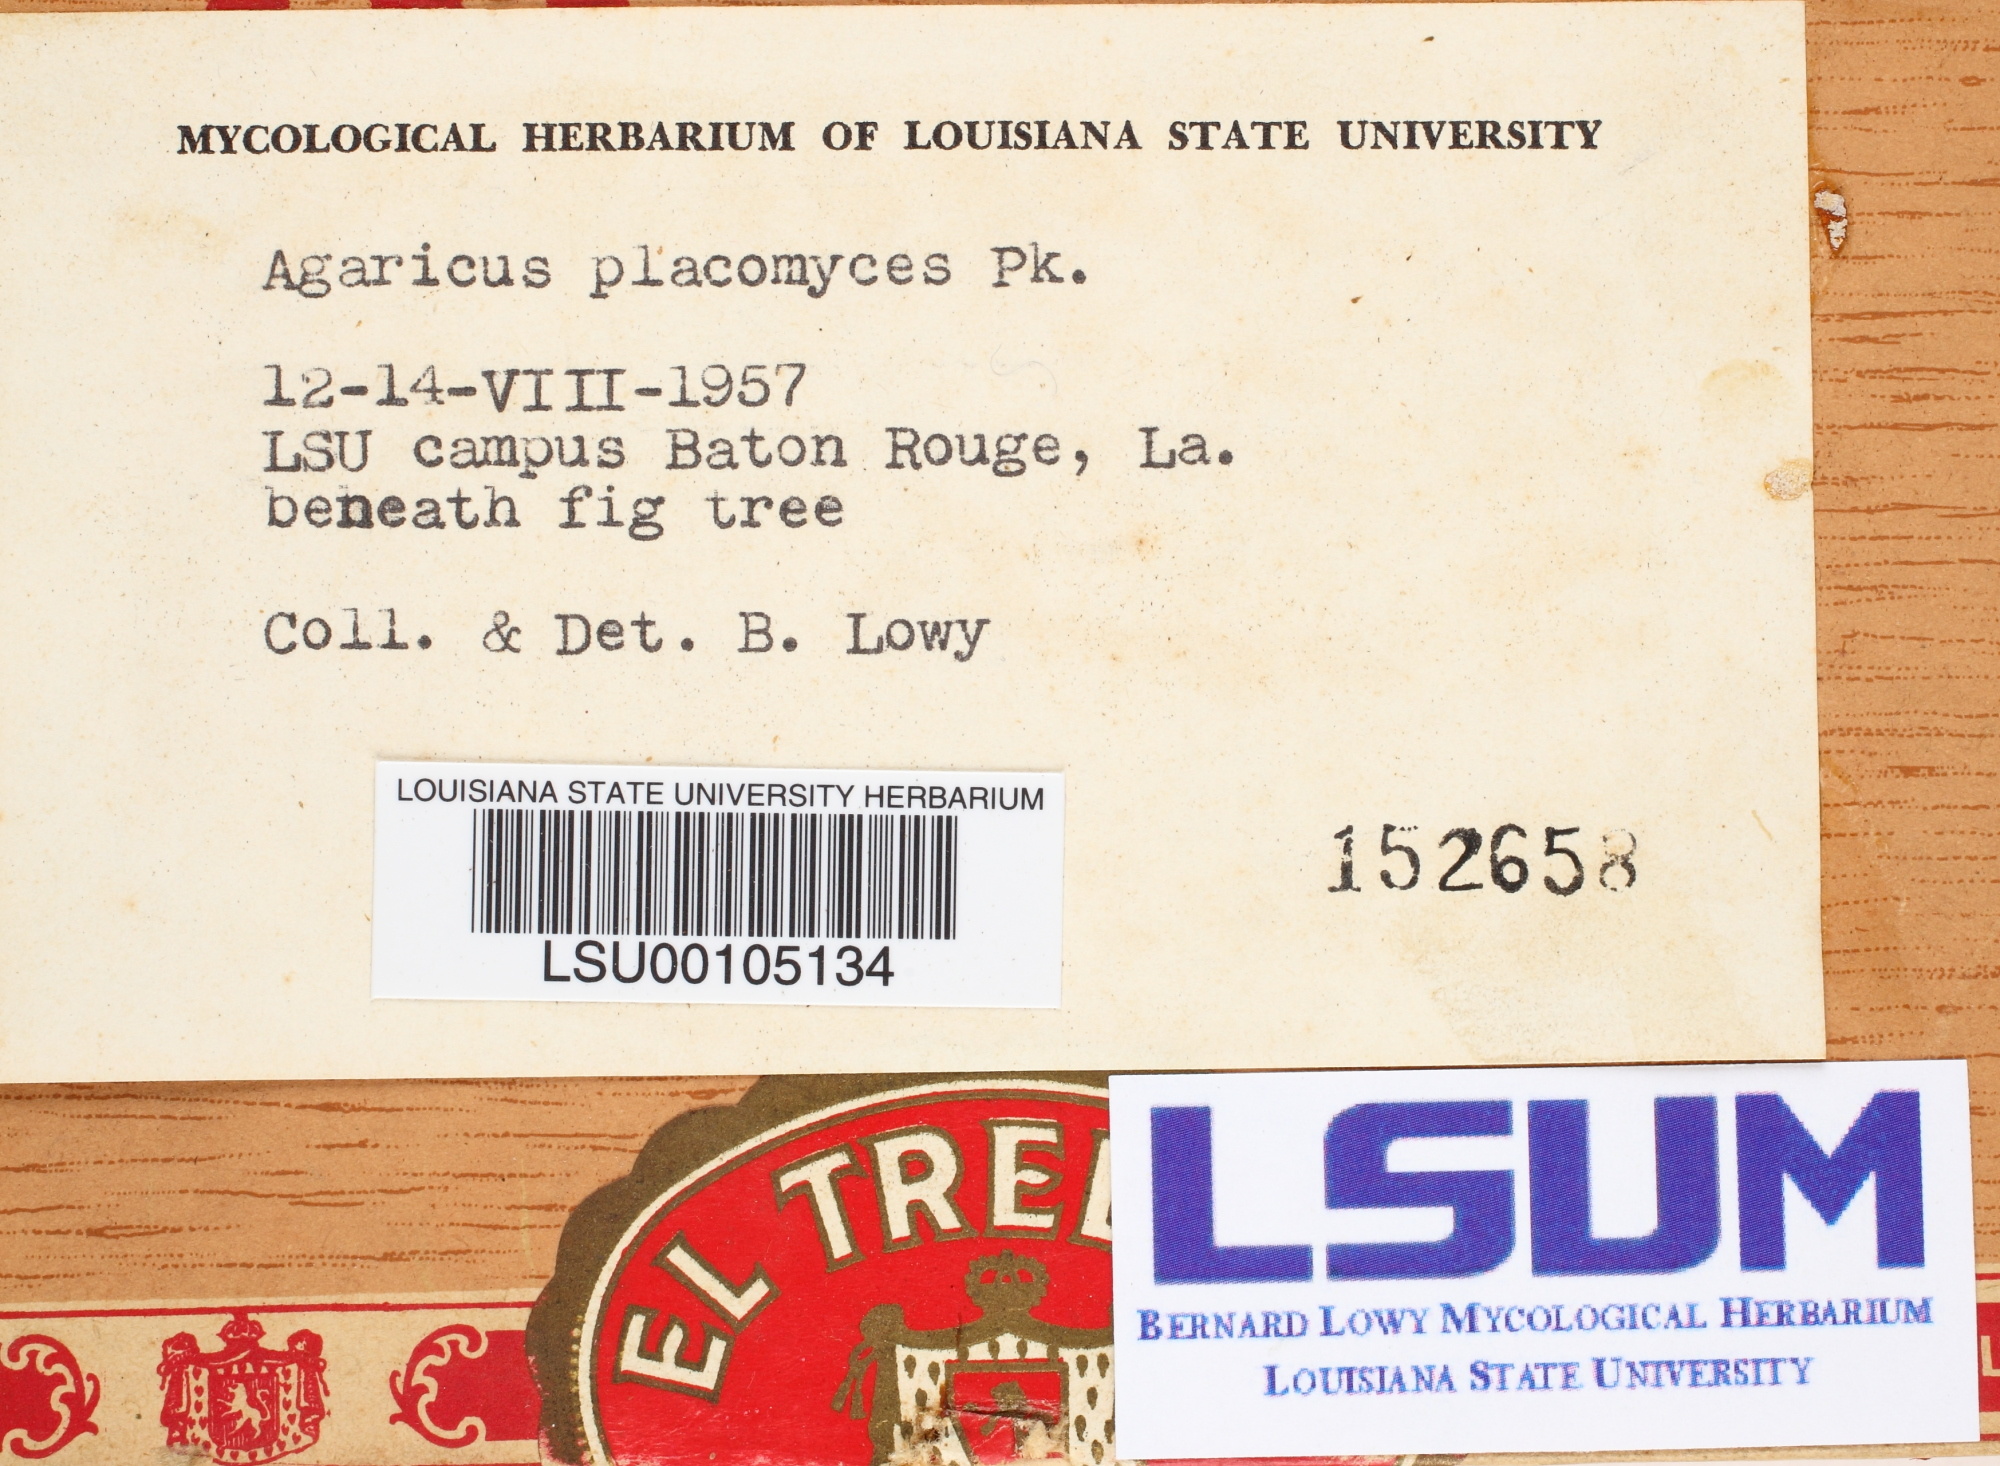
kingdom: Fungi
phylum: Basidiomycota
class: Agaricomycetes
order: Agaricales
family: Agaricaceae
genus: Agaricus
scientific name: Agaricus placomyces
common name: Inky mushroom
